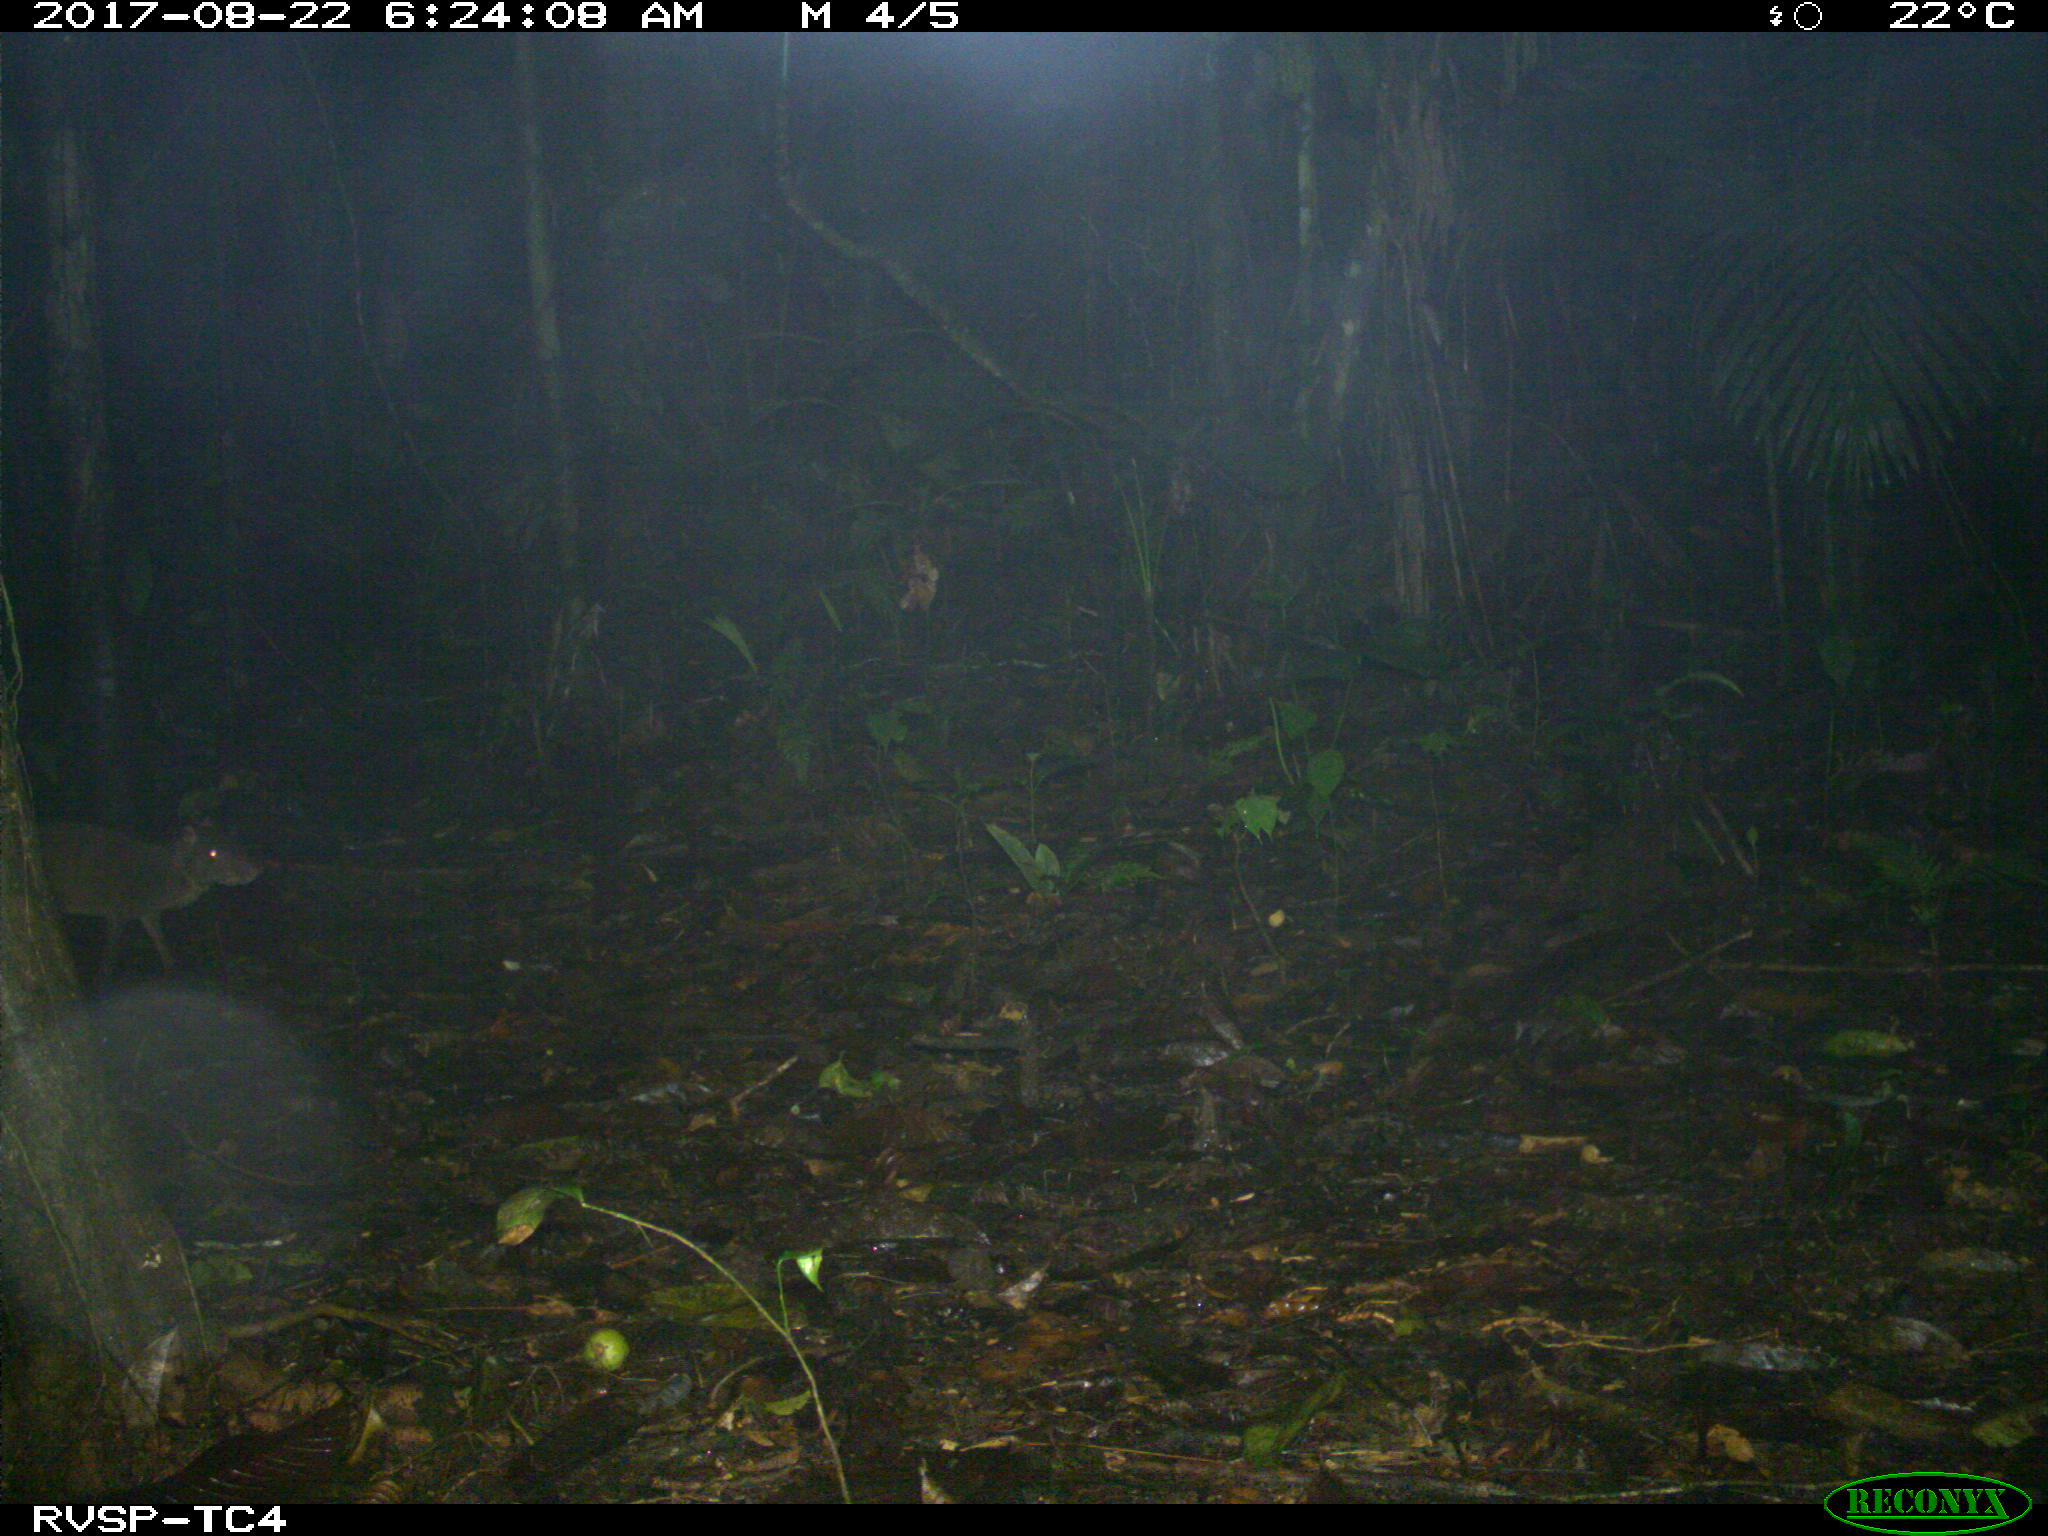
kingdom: Animalia
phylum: Chordata
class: Mammalia
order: Rodentia
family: Dasyproctidae
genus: Dasyprocta
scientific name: Dasyprocta punctata
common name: Central american agouti
